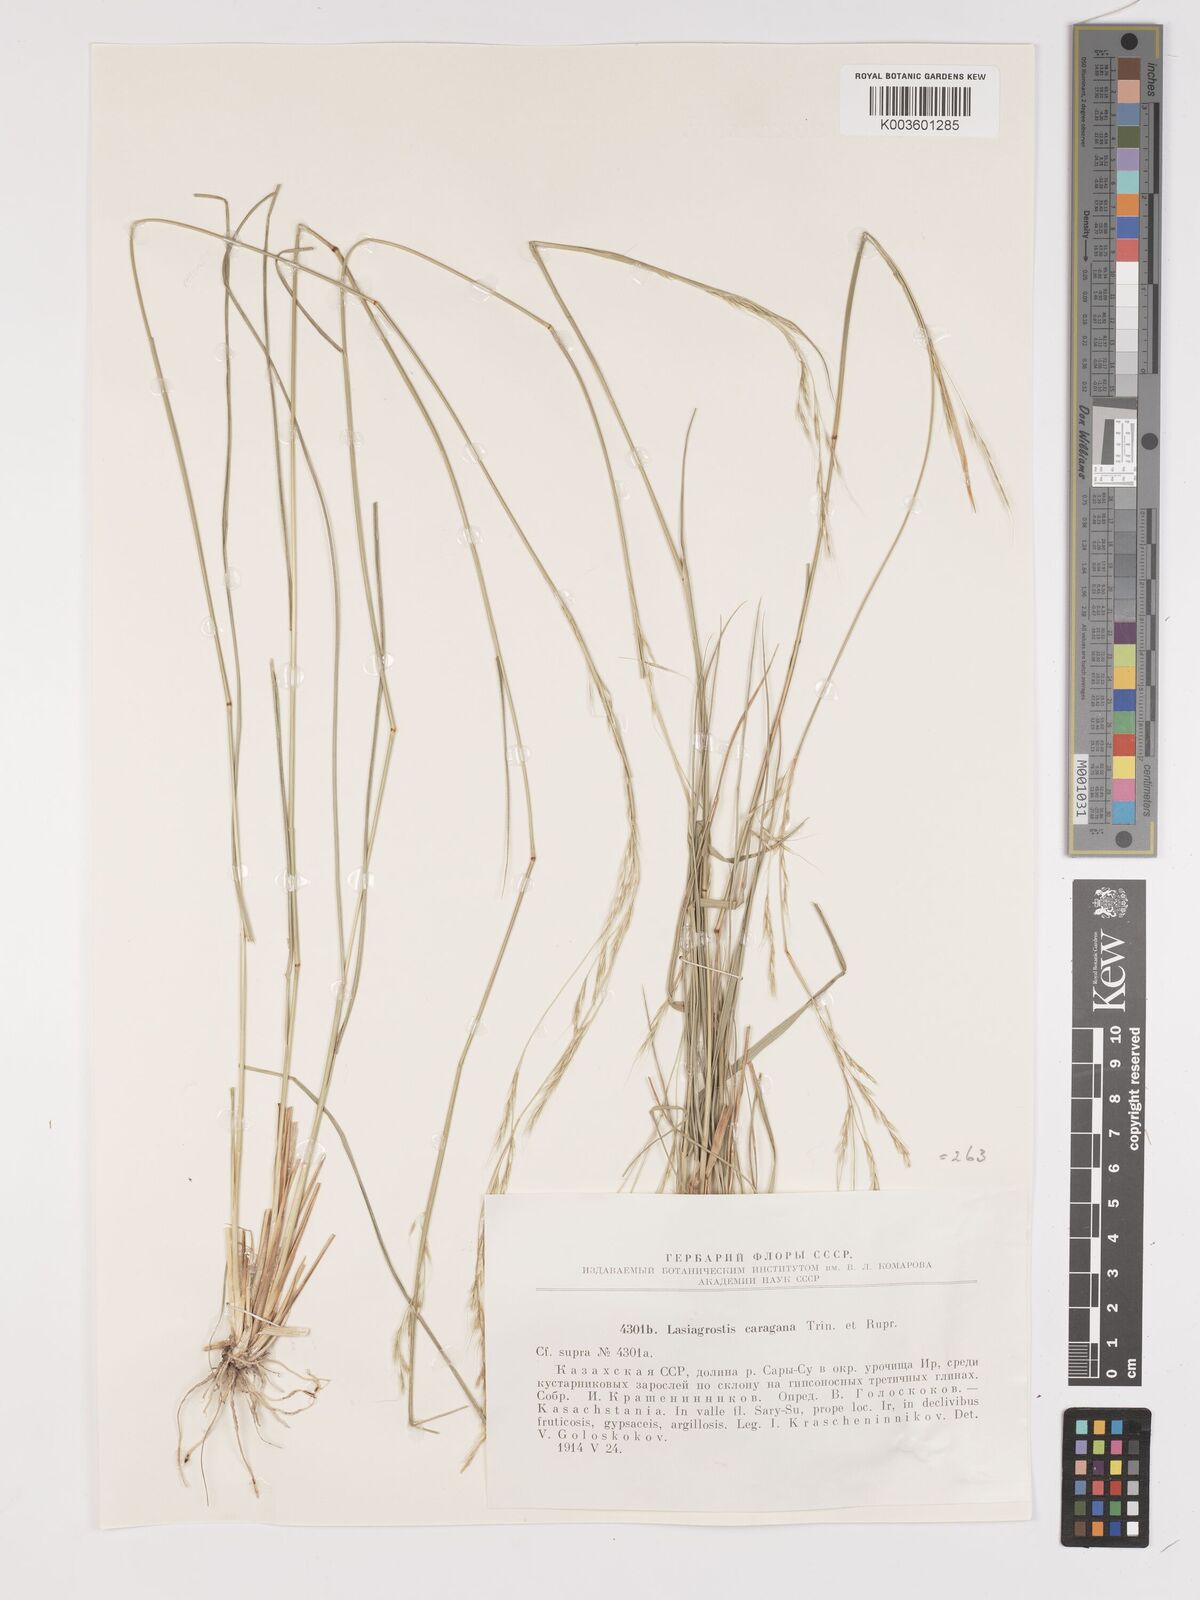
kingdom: Plantae
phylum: Tracheophyta
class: Liliopsida
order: Poales
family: Poaceae
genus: Stipa
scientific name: Stipa conferta
